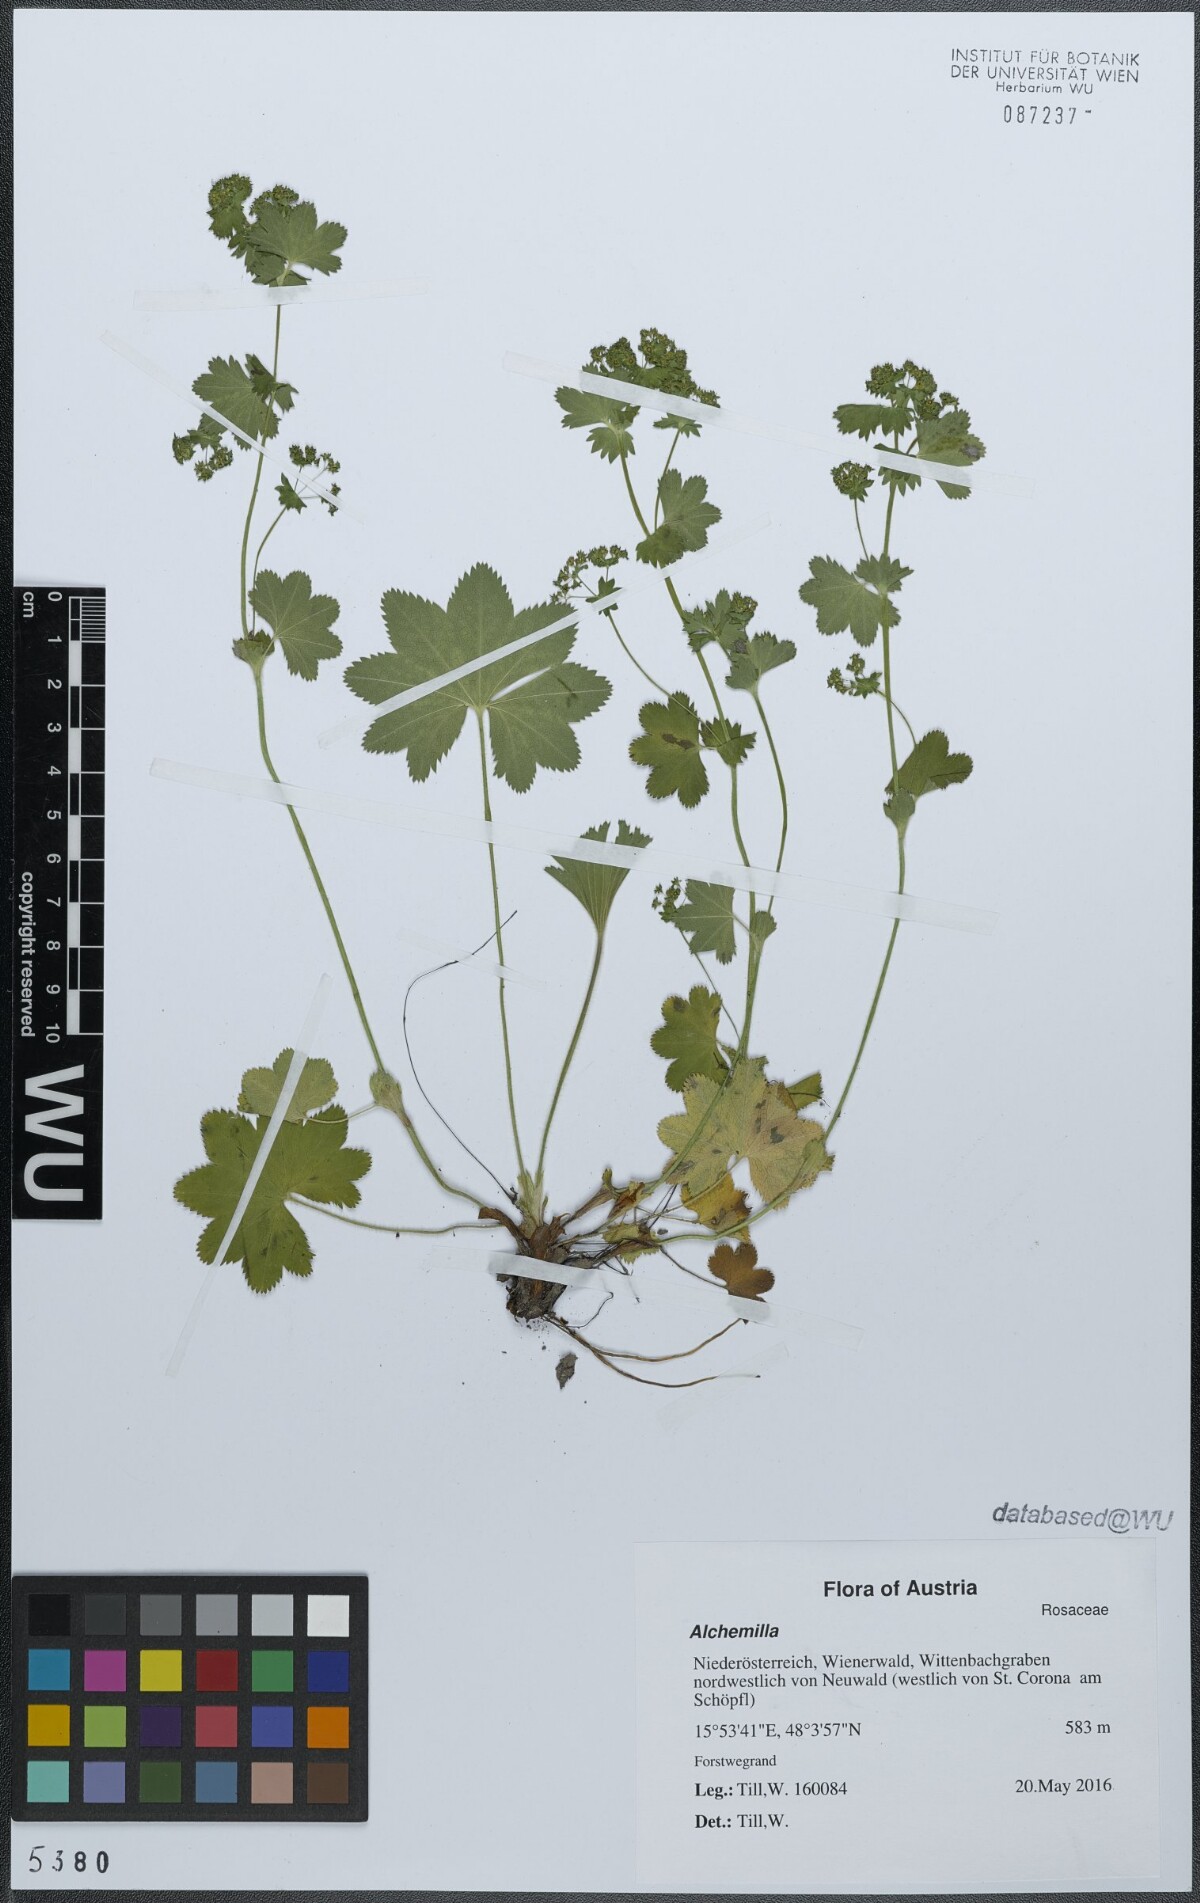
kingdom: Plantae
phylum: Tracheophyta
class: Magnoliopsida
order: Rosales
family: Rosaceae
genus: Alchemilla
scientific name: Alchemilla
